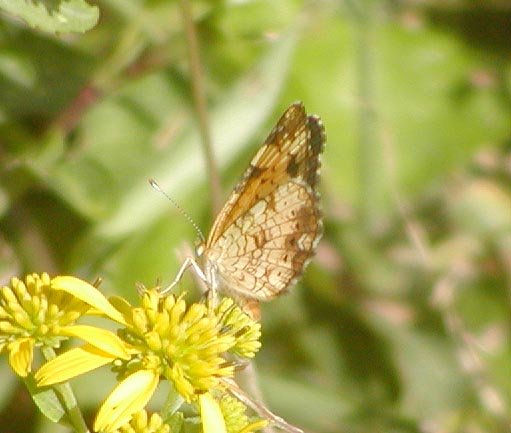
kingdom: Animalia
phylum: Arthropoda
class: Insecta
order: Lepidoptera
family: Nymphalidae
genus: Phyciodes
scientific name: Phyciodes tharos
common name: Pearl Crescent
